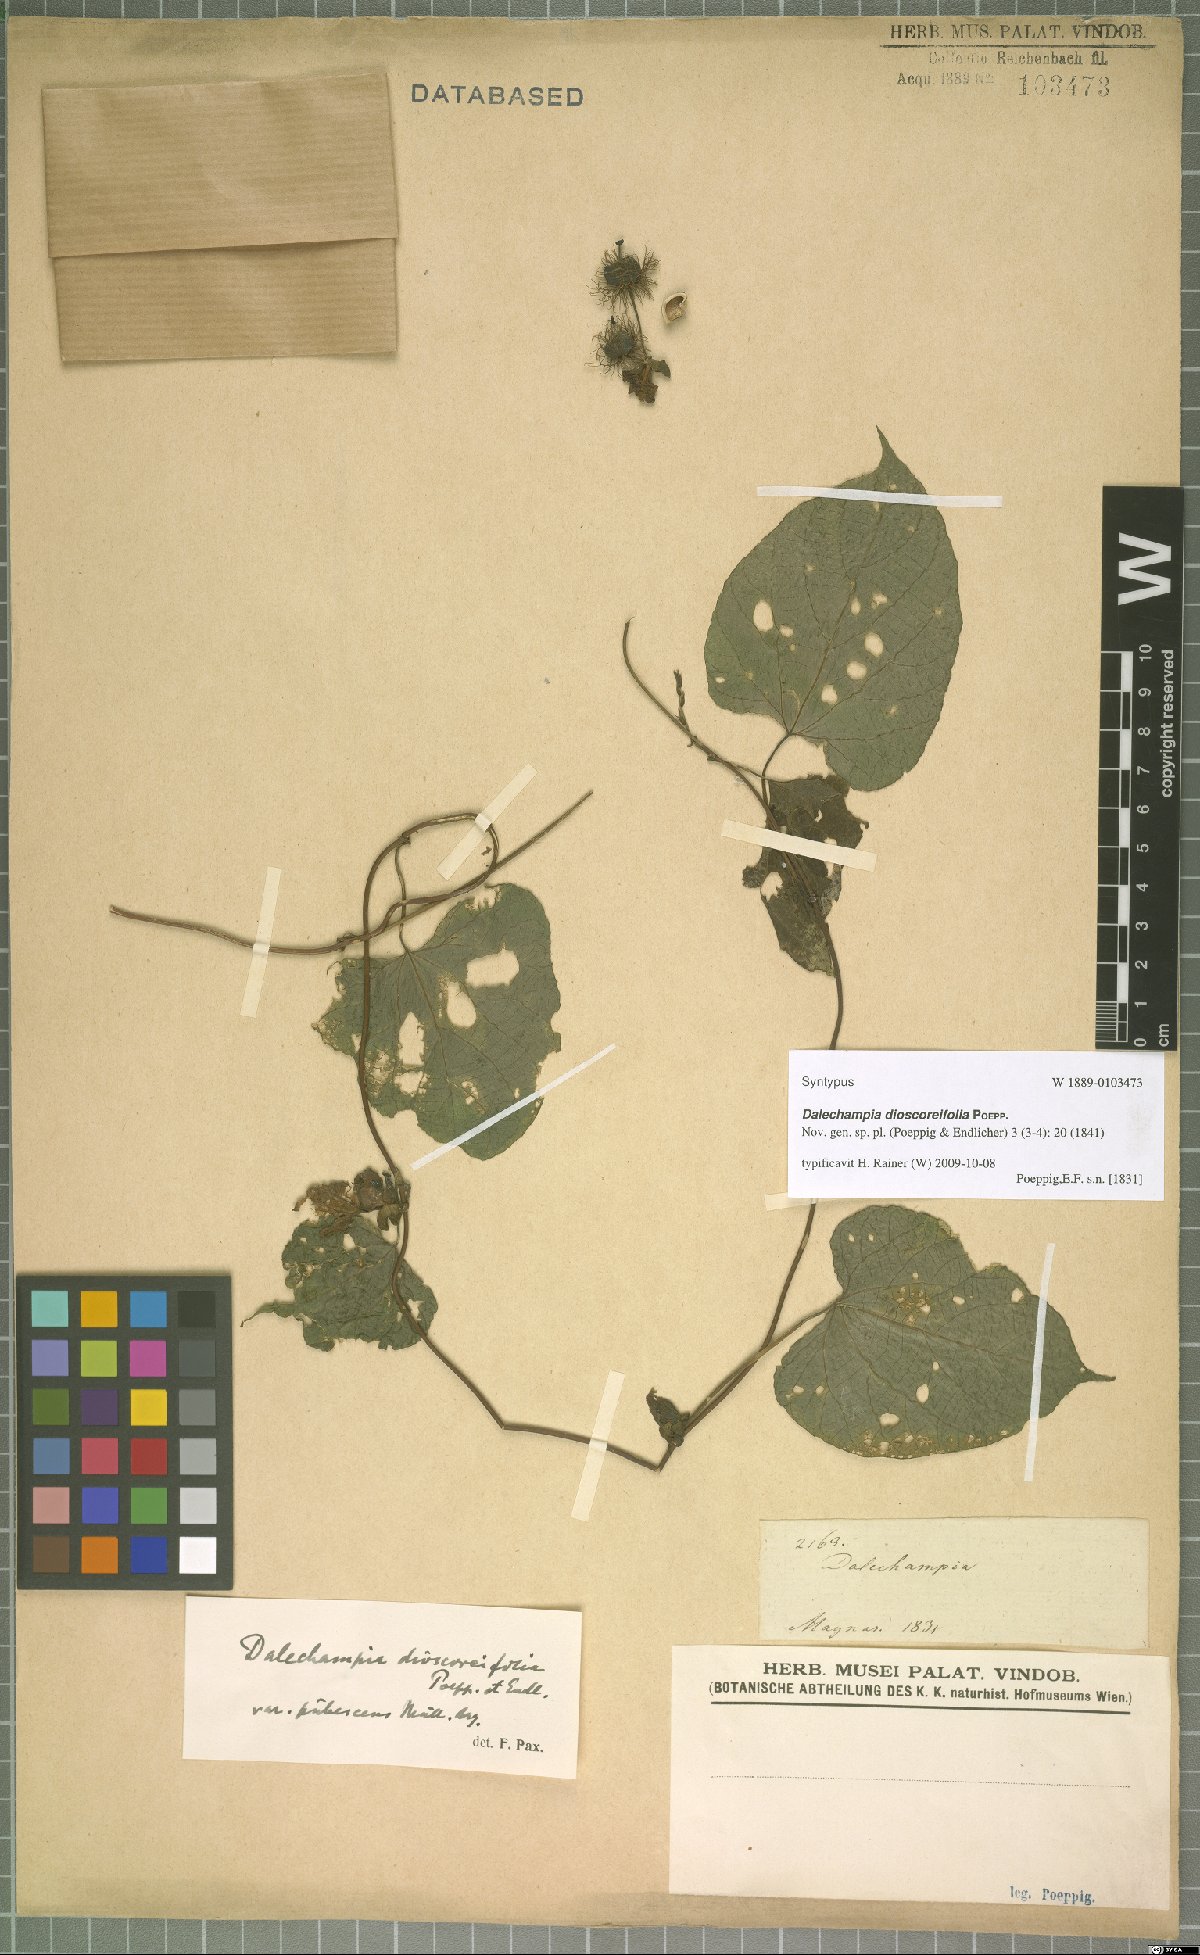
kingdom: Plantae
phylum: Tracheophyta
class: Magnoliopsida
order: Malpighiales
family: Euphorbiaceae
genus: Dalechampia
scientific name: Dalechampia dioscoreifolia
